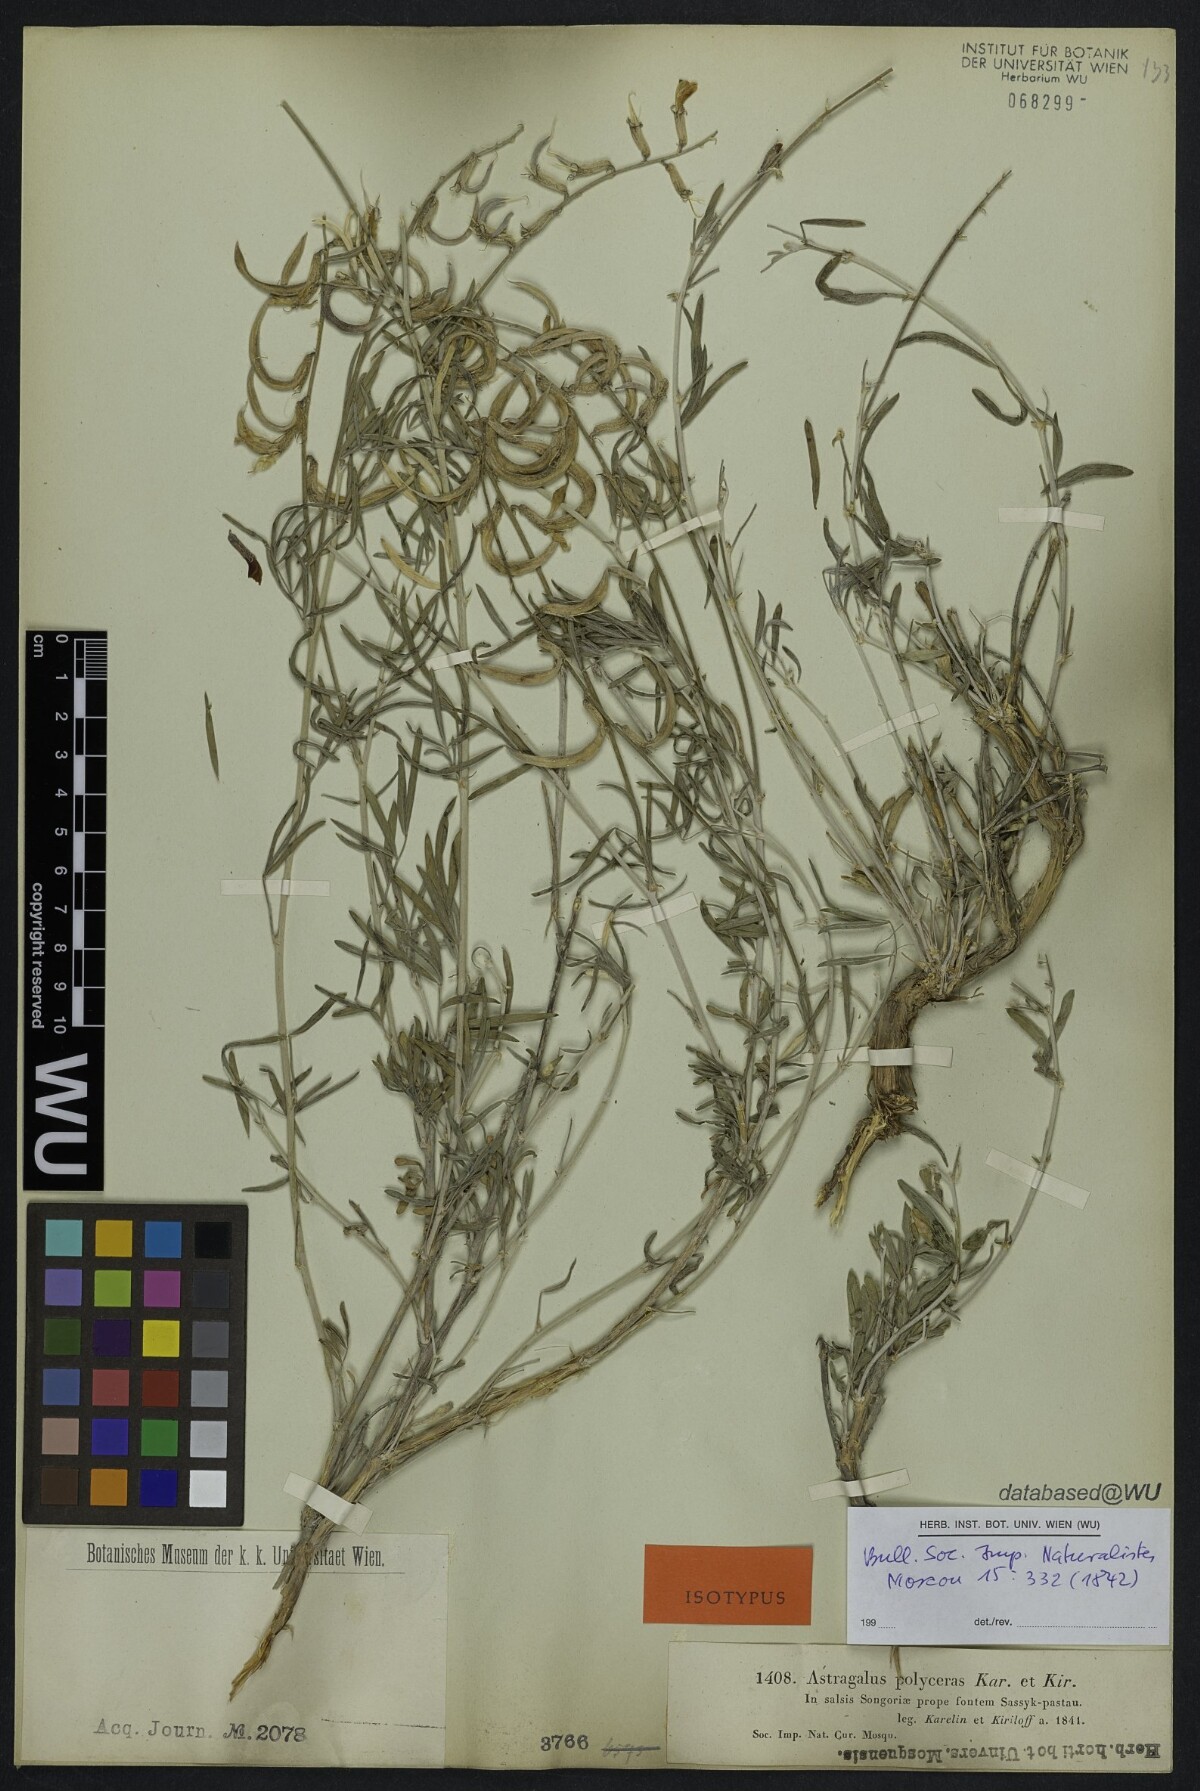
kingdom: Plantae
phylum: Tracheophyta
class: Magnoliopsida
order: Fabales
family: Fabaceae
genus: Astragalus
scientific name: Astragalus polyceras
